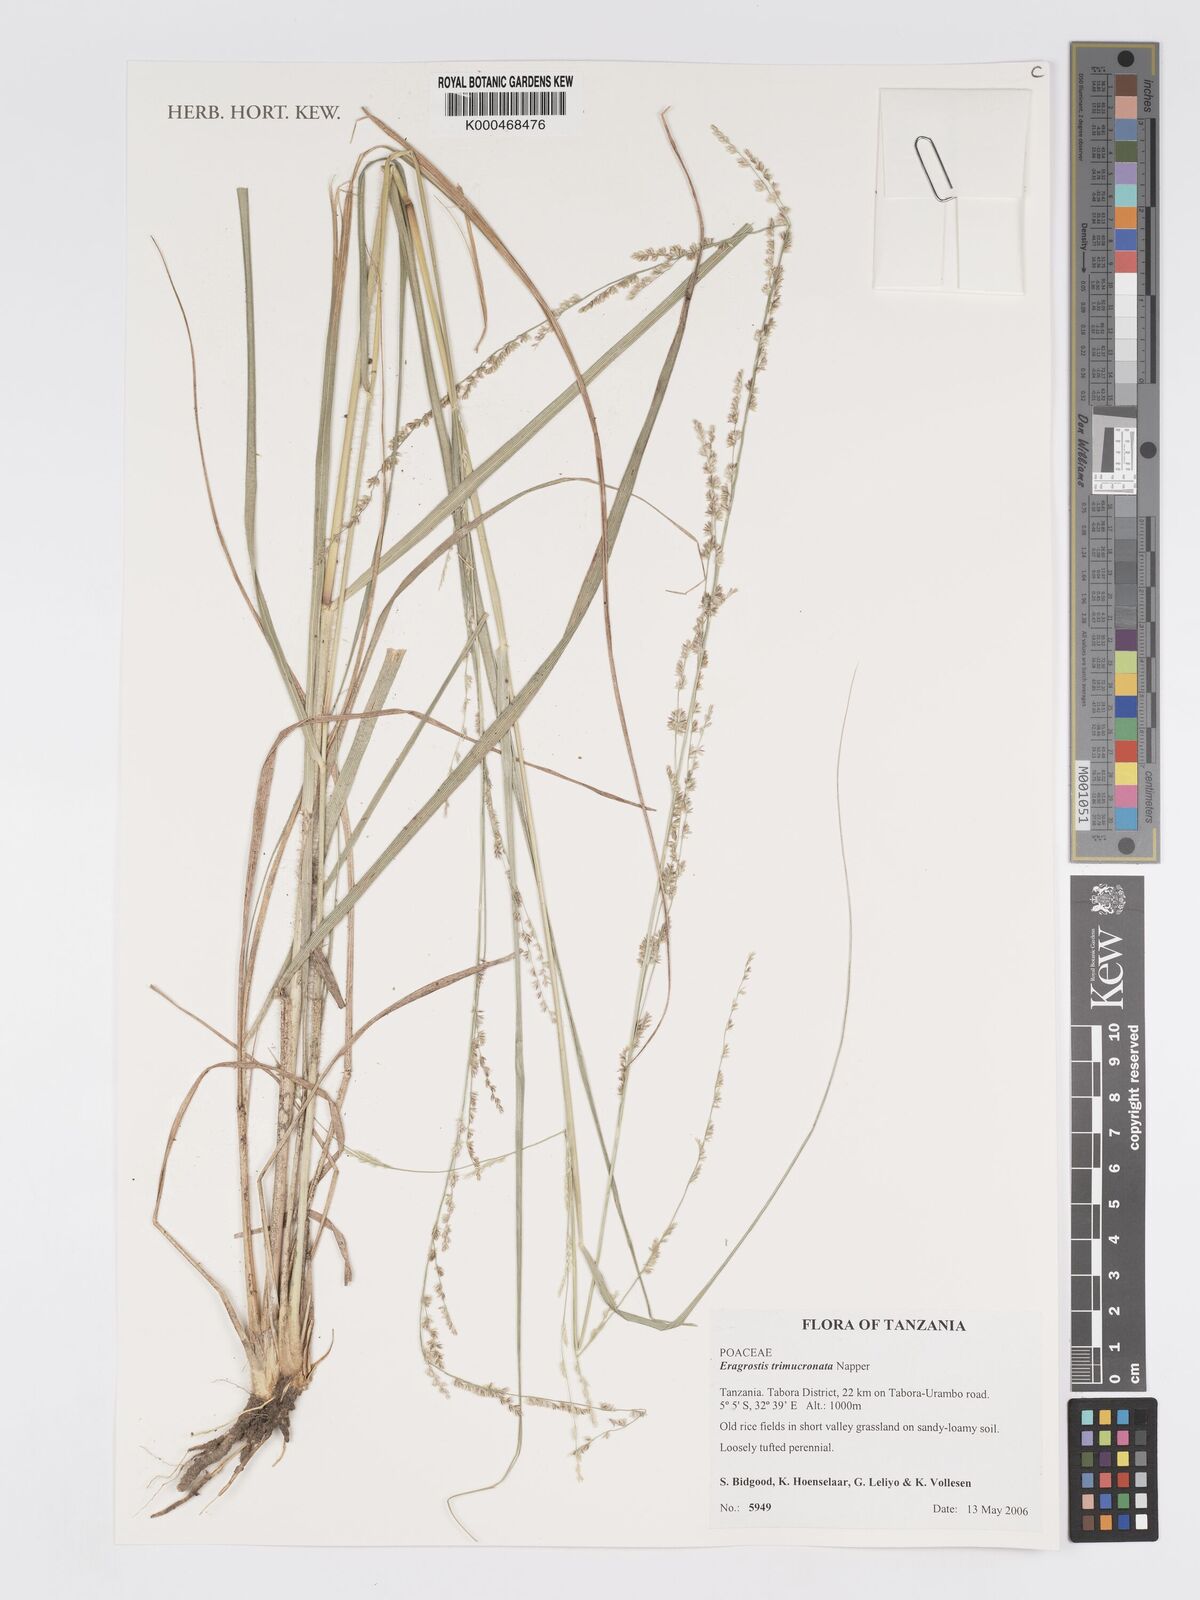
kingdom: Plantae
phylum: Tracheophyta
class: Liliopsida
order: Poales
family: Poaceae
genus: Eragrostis
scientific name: Eragrostis trimucronata
